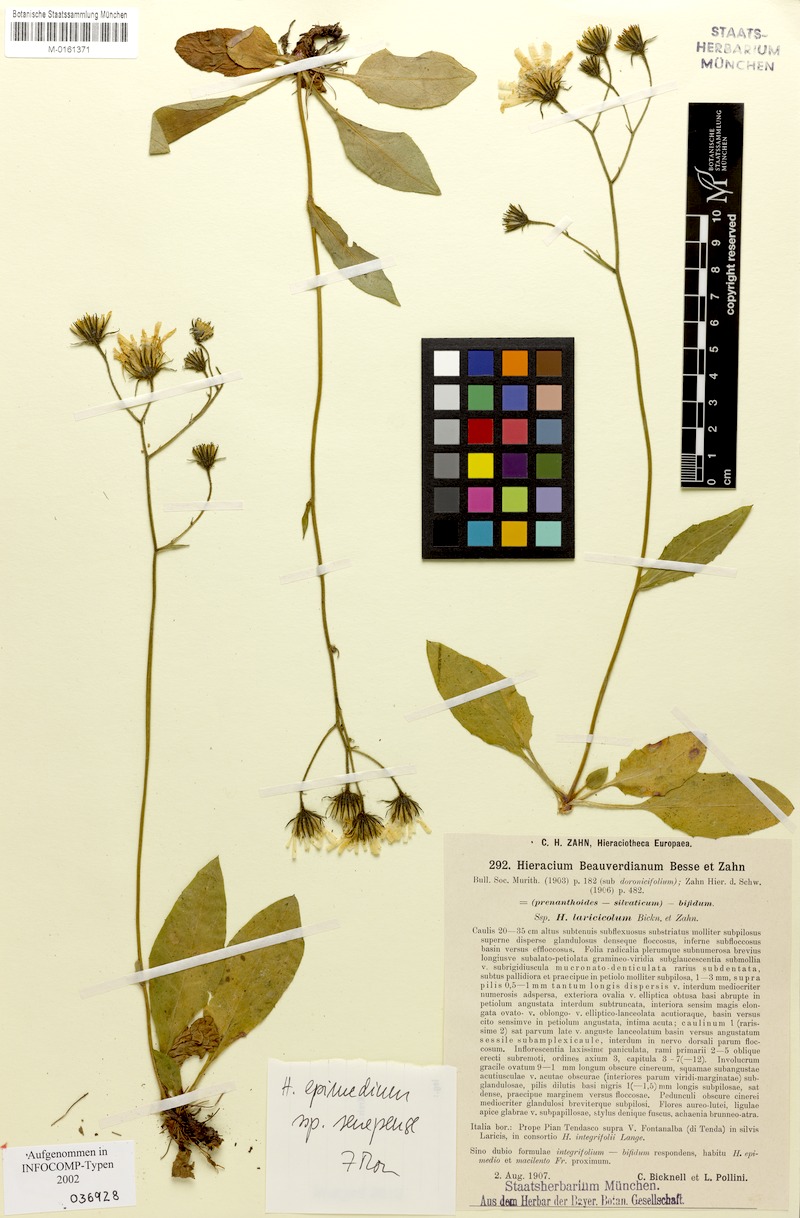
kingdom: Plantae
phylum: Tracheophyta
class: Magnoliopsida
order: Asterales
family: Asteraceae
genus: Hieracium
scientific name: Hieracium froelichianum
